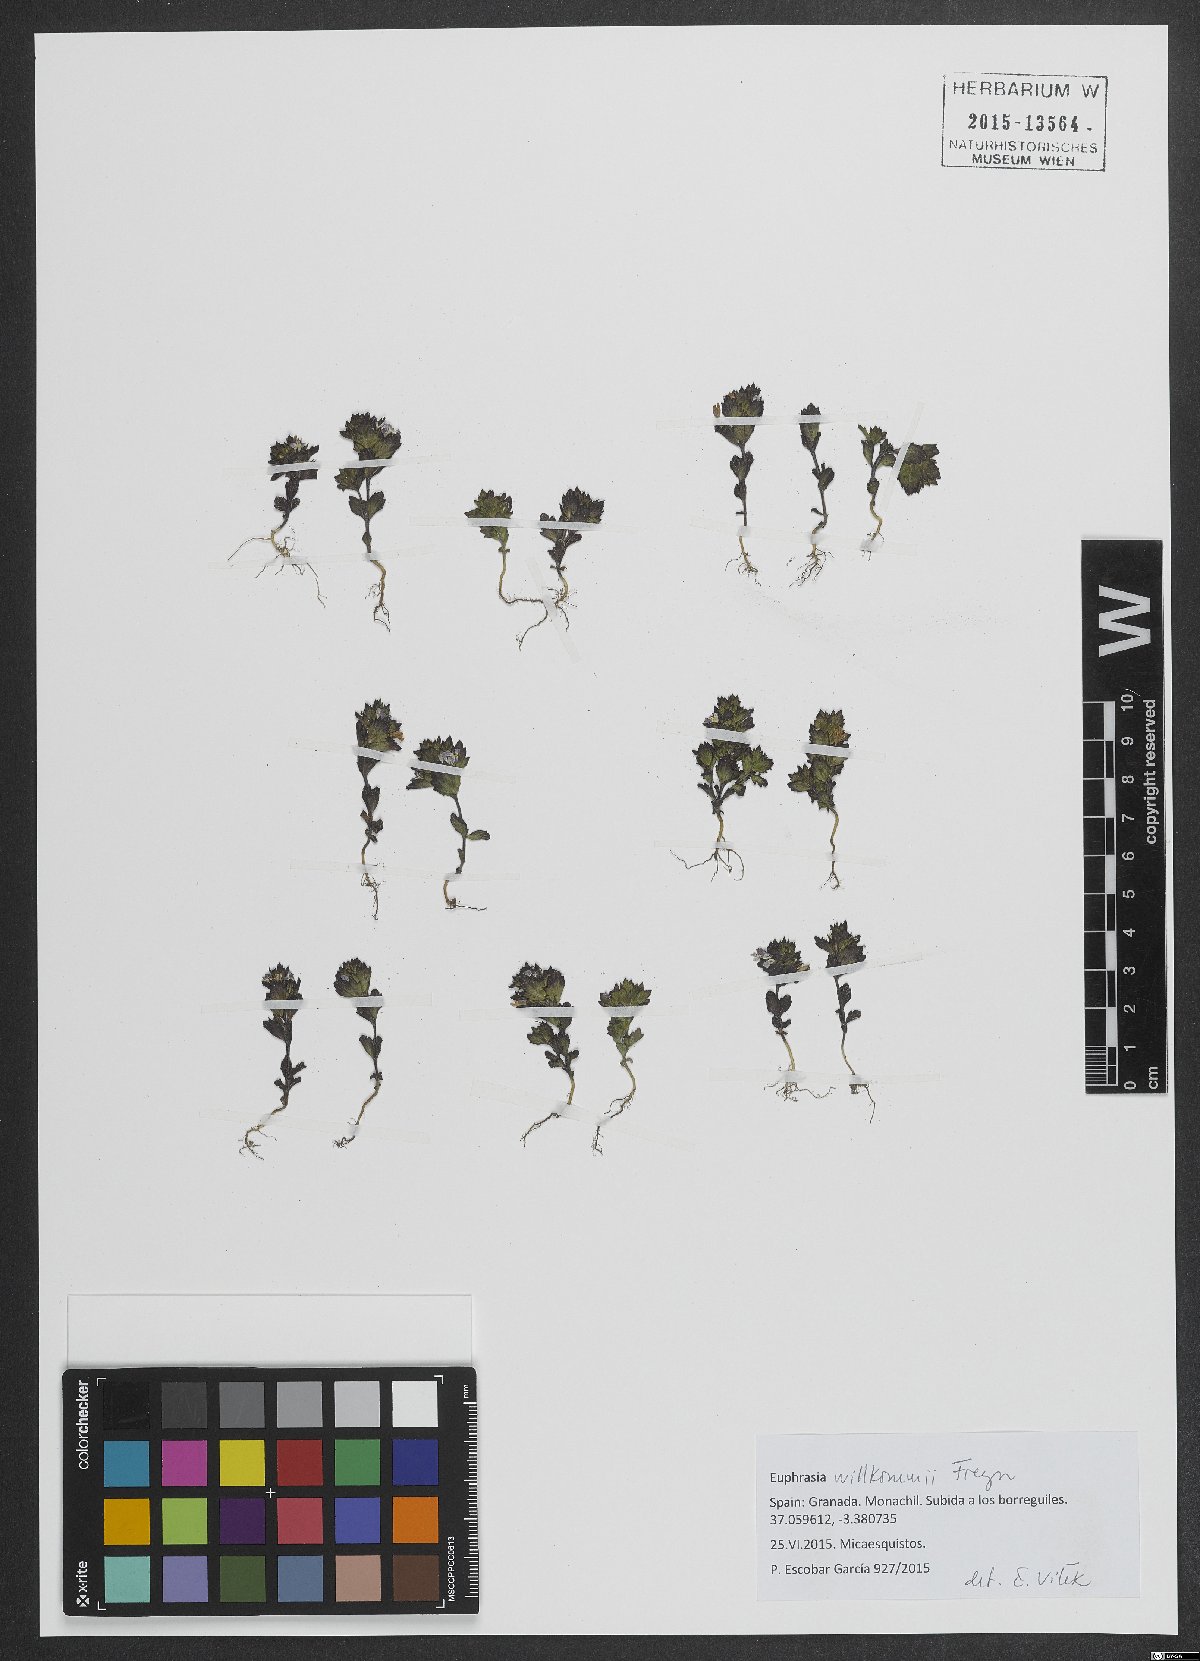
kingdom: Plantae
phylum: Tracheophyta
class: Magnoliopsida
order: Lamiales
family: Orobanchaceae
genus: Euphrasia
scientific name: Euphrasia willkommii
